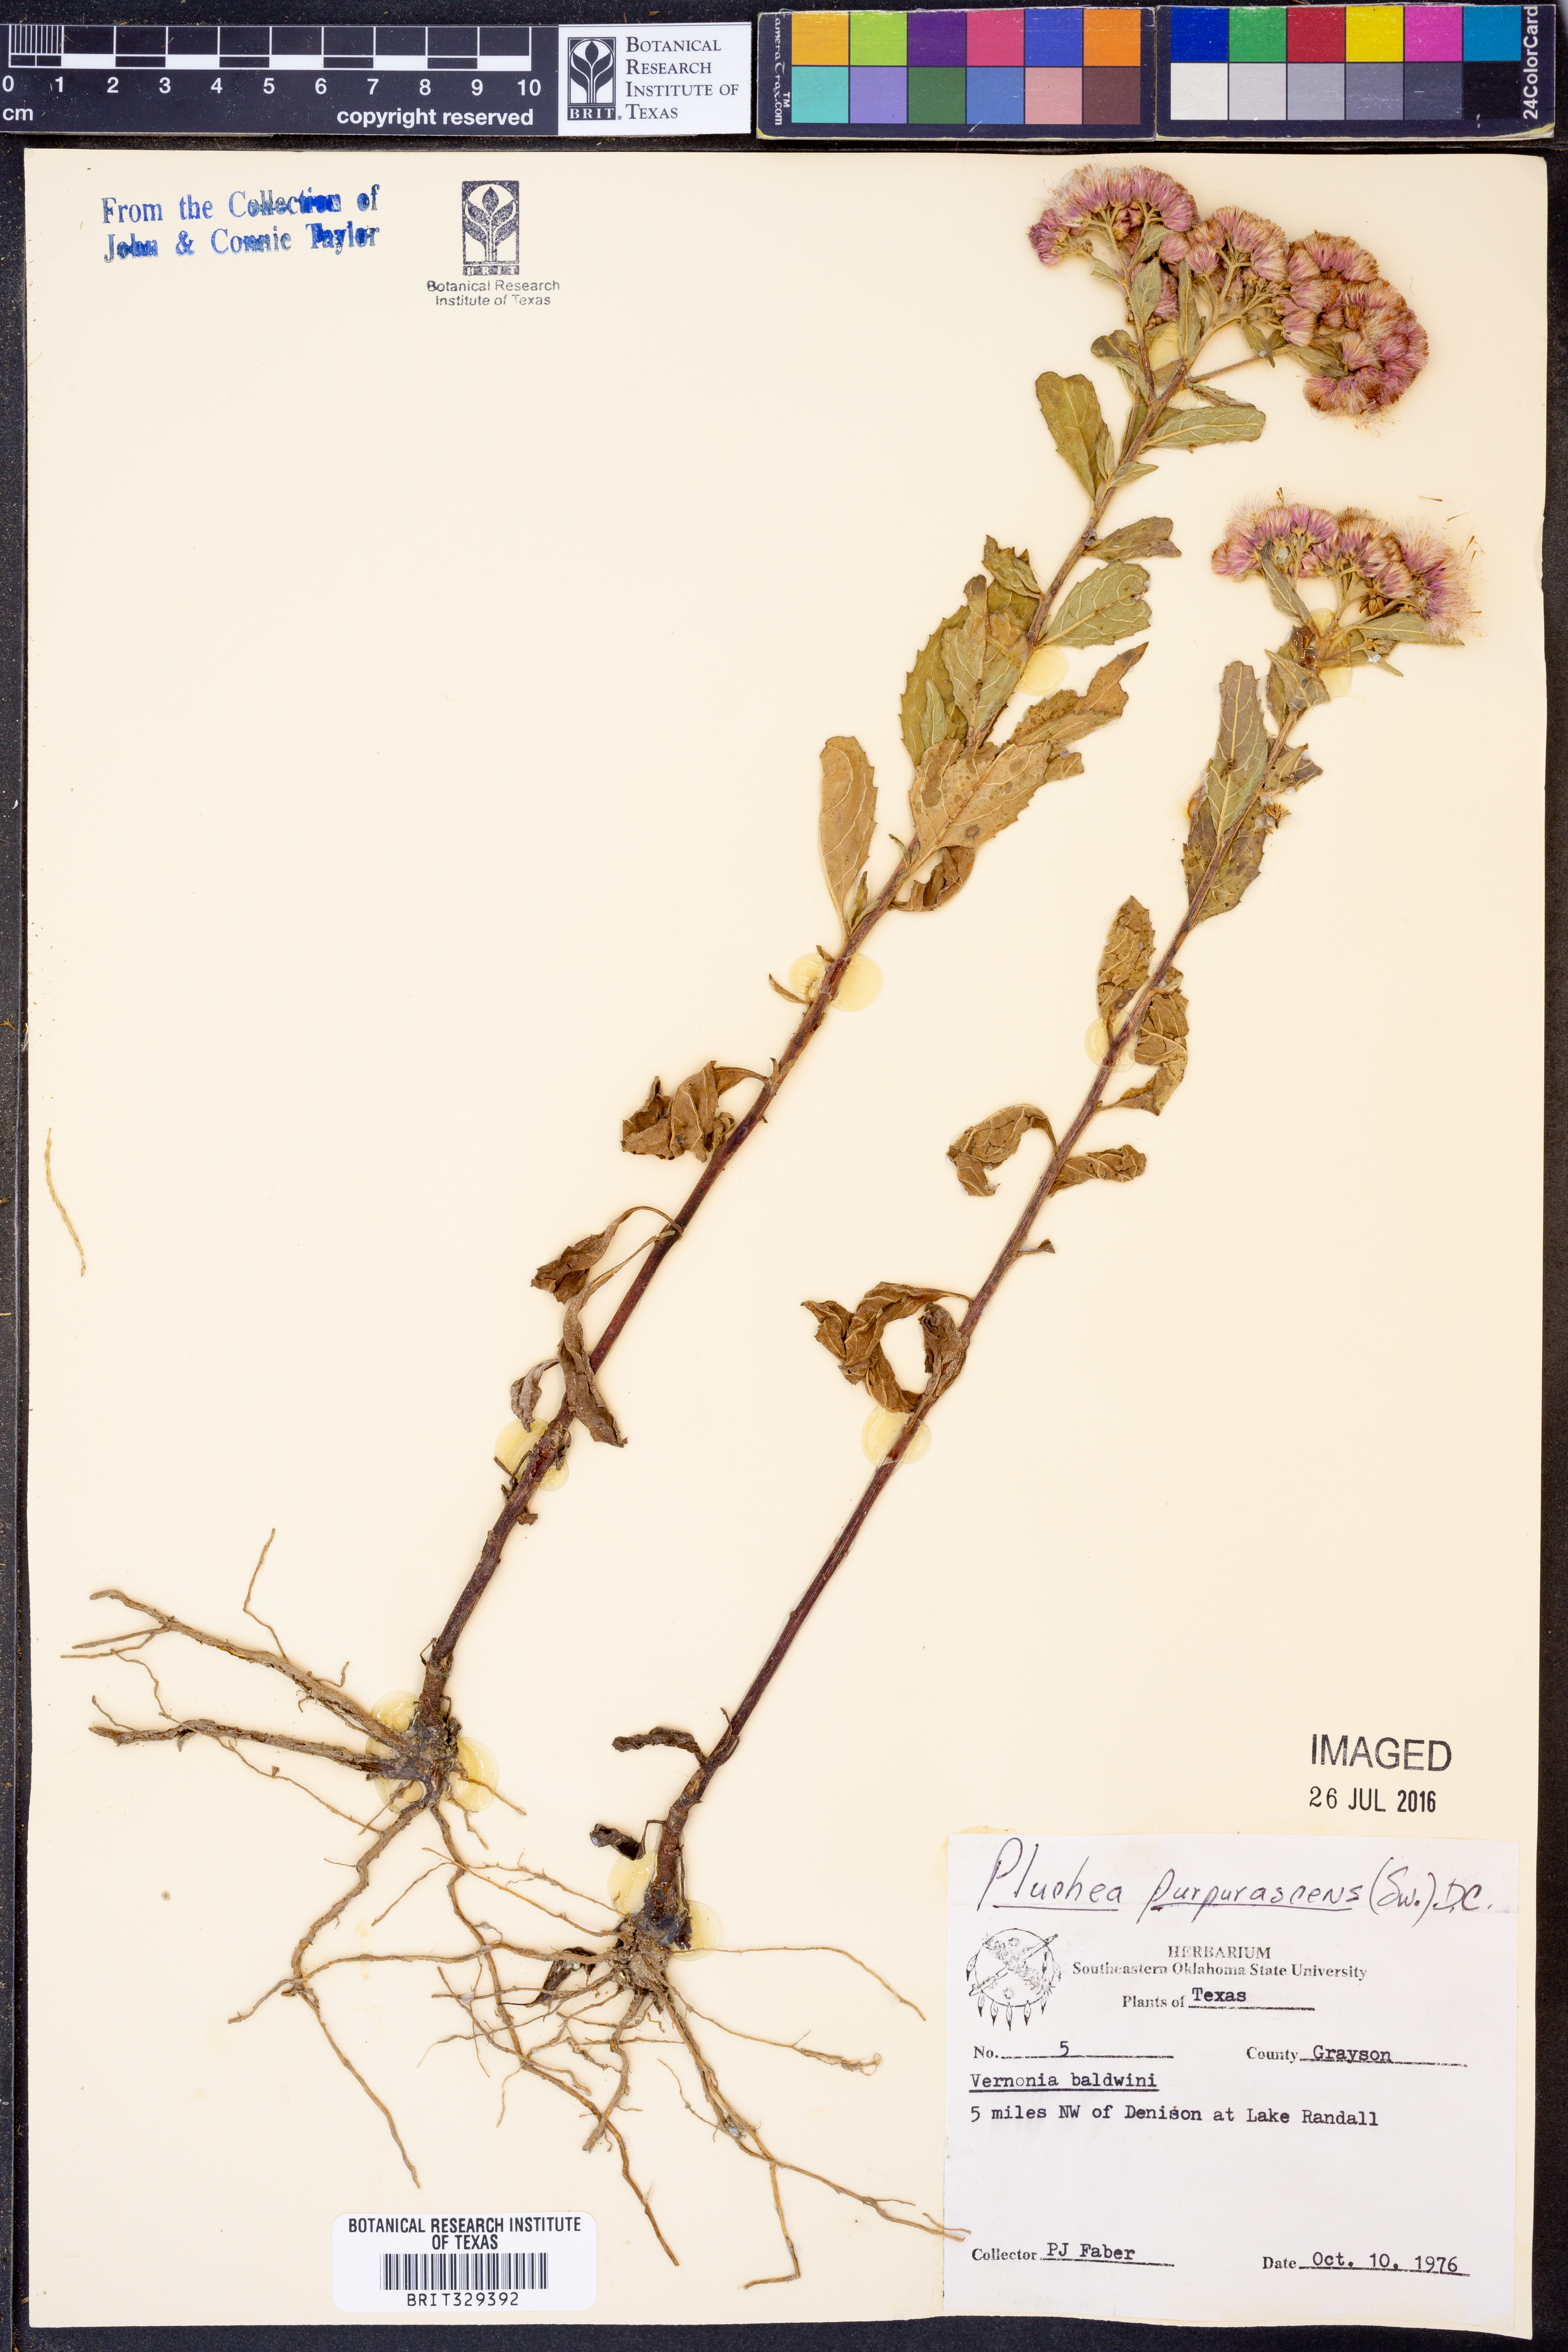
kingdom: Plantae
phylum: Tracheophyta
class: Magnoliopsida
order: Asterales
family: Asteraceae
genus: Pluchea
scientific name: Pluchea odorata
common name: Saltmarsh fleabane
